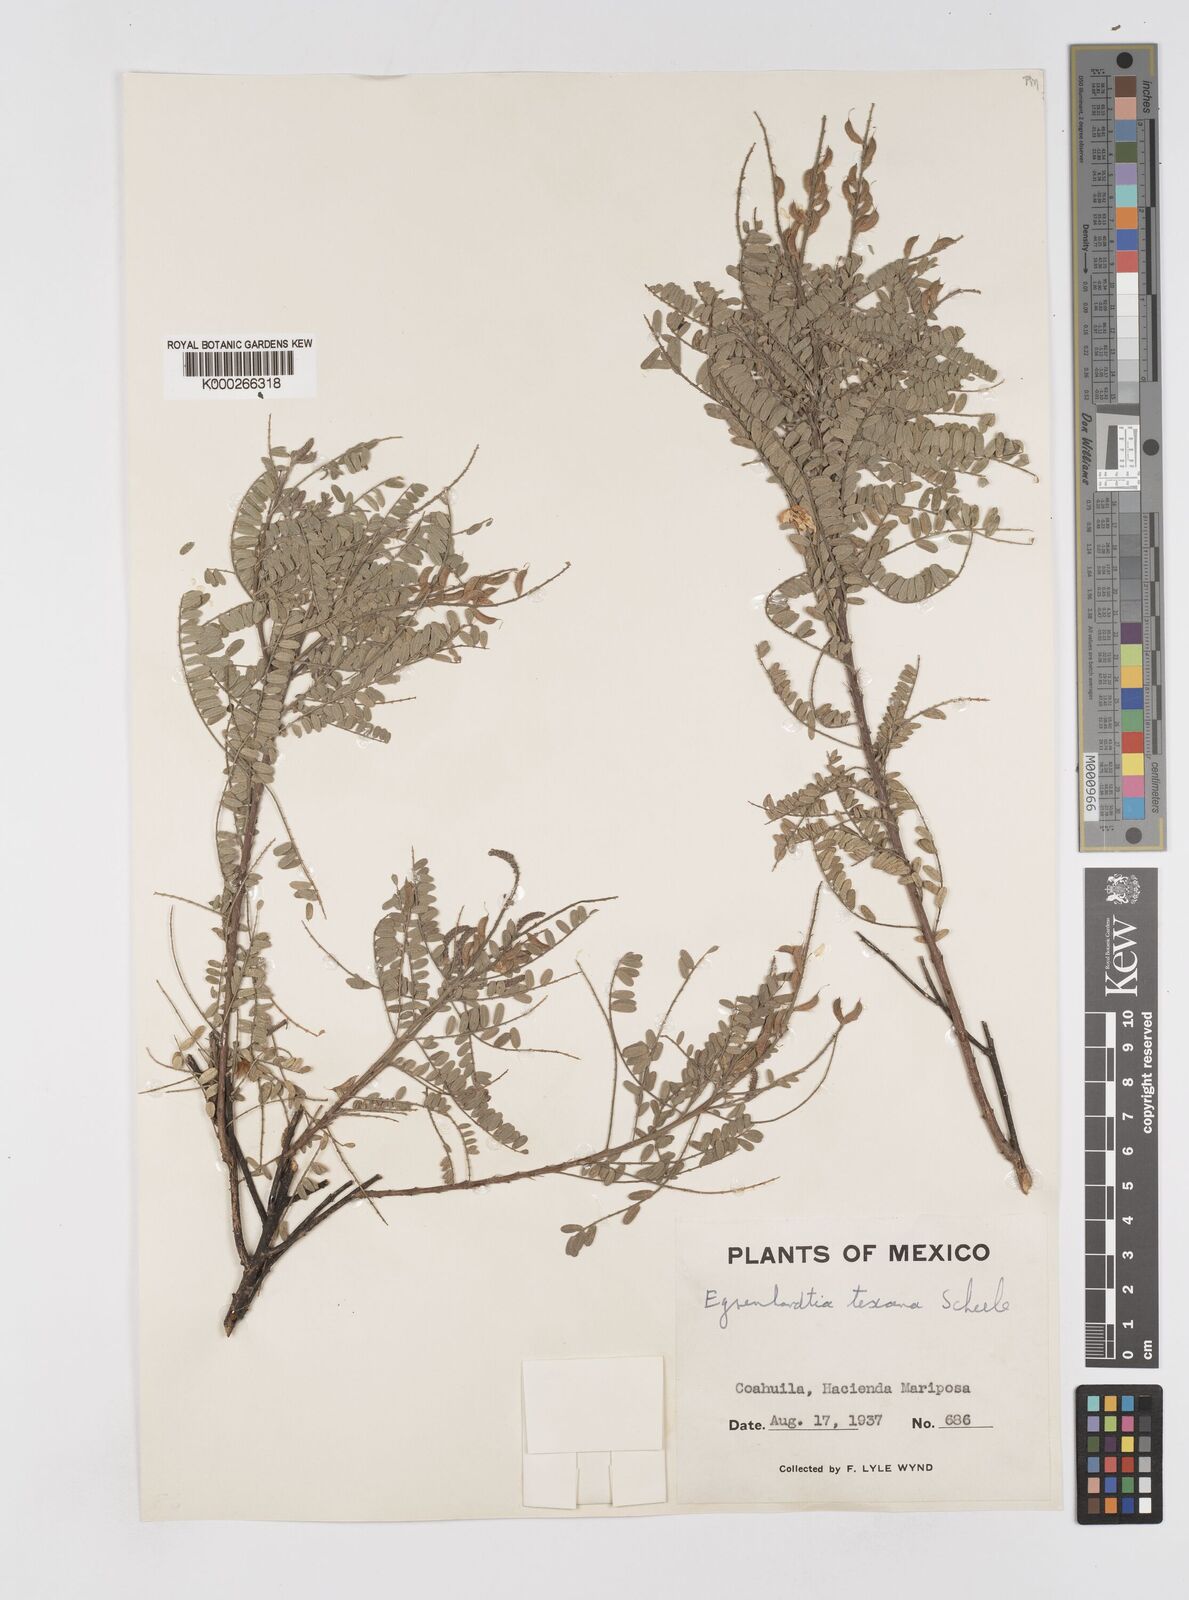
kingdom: Plantae
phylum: Tracheophyta
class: Magnoliopsida
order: Fabales
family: Fabaceae
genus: Eysenhardtia
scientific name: Eysenhardtia texana
